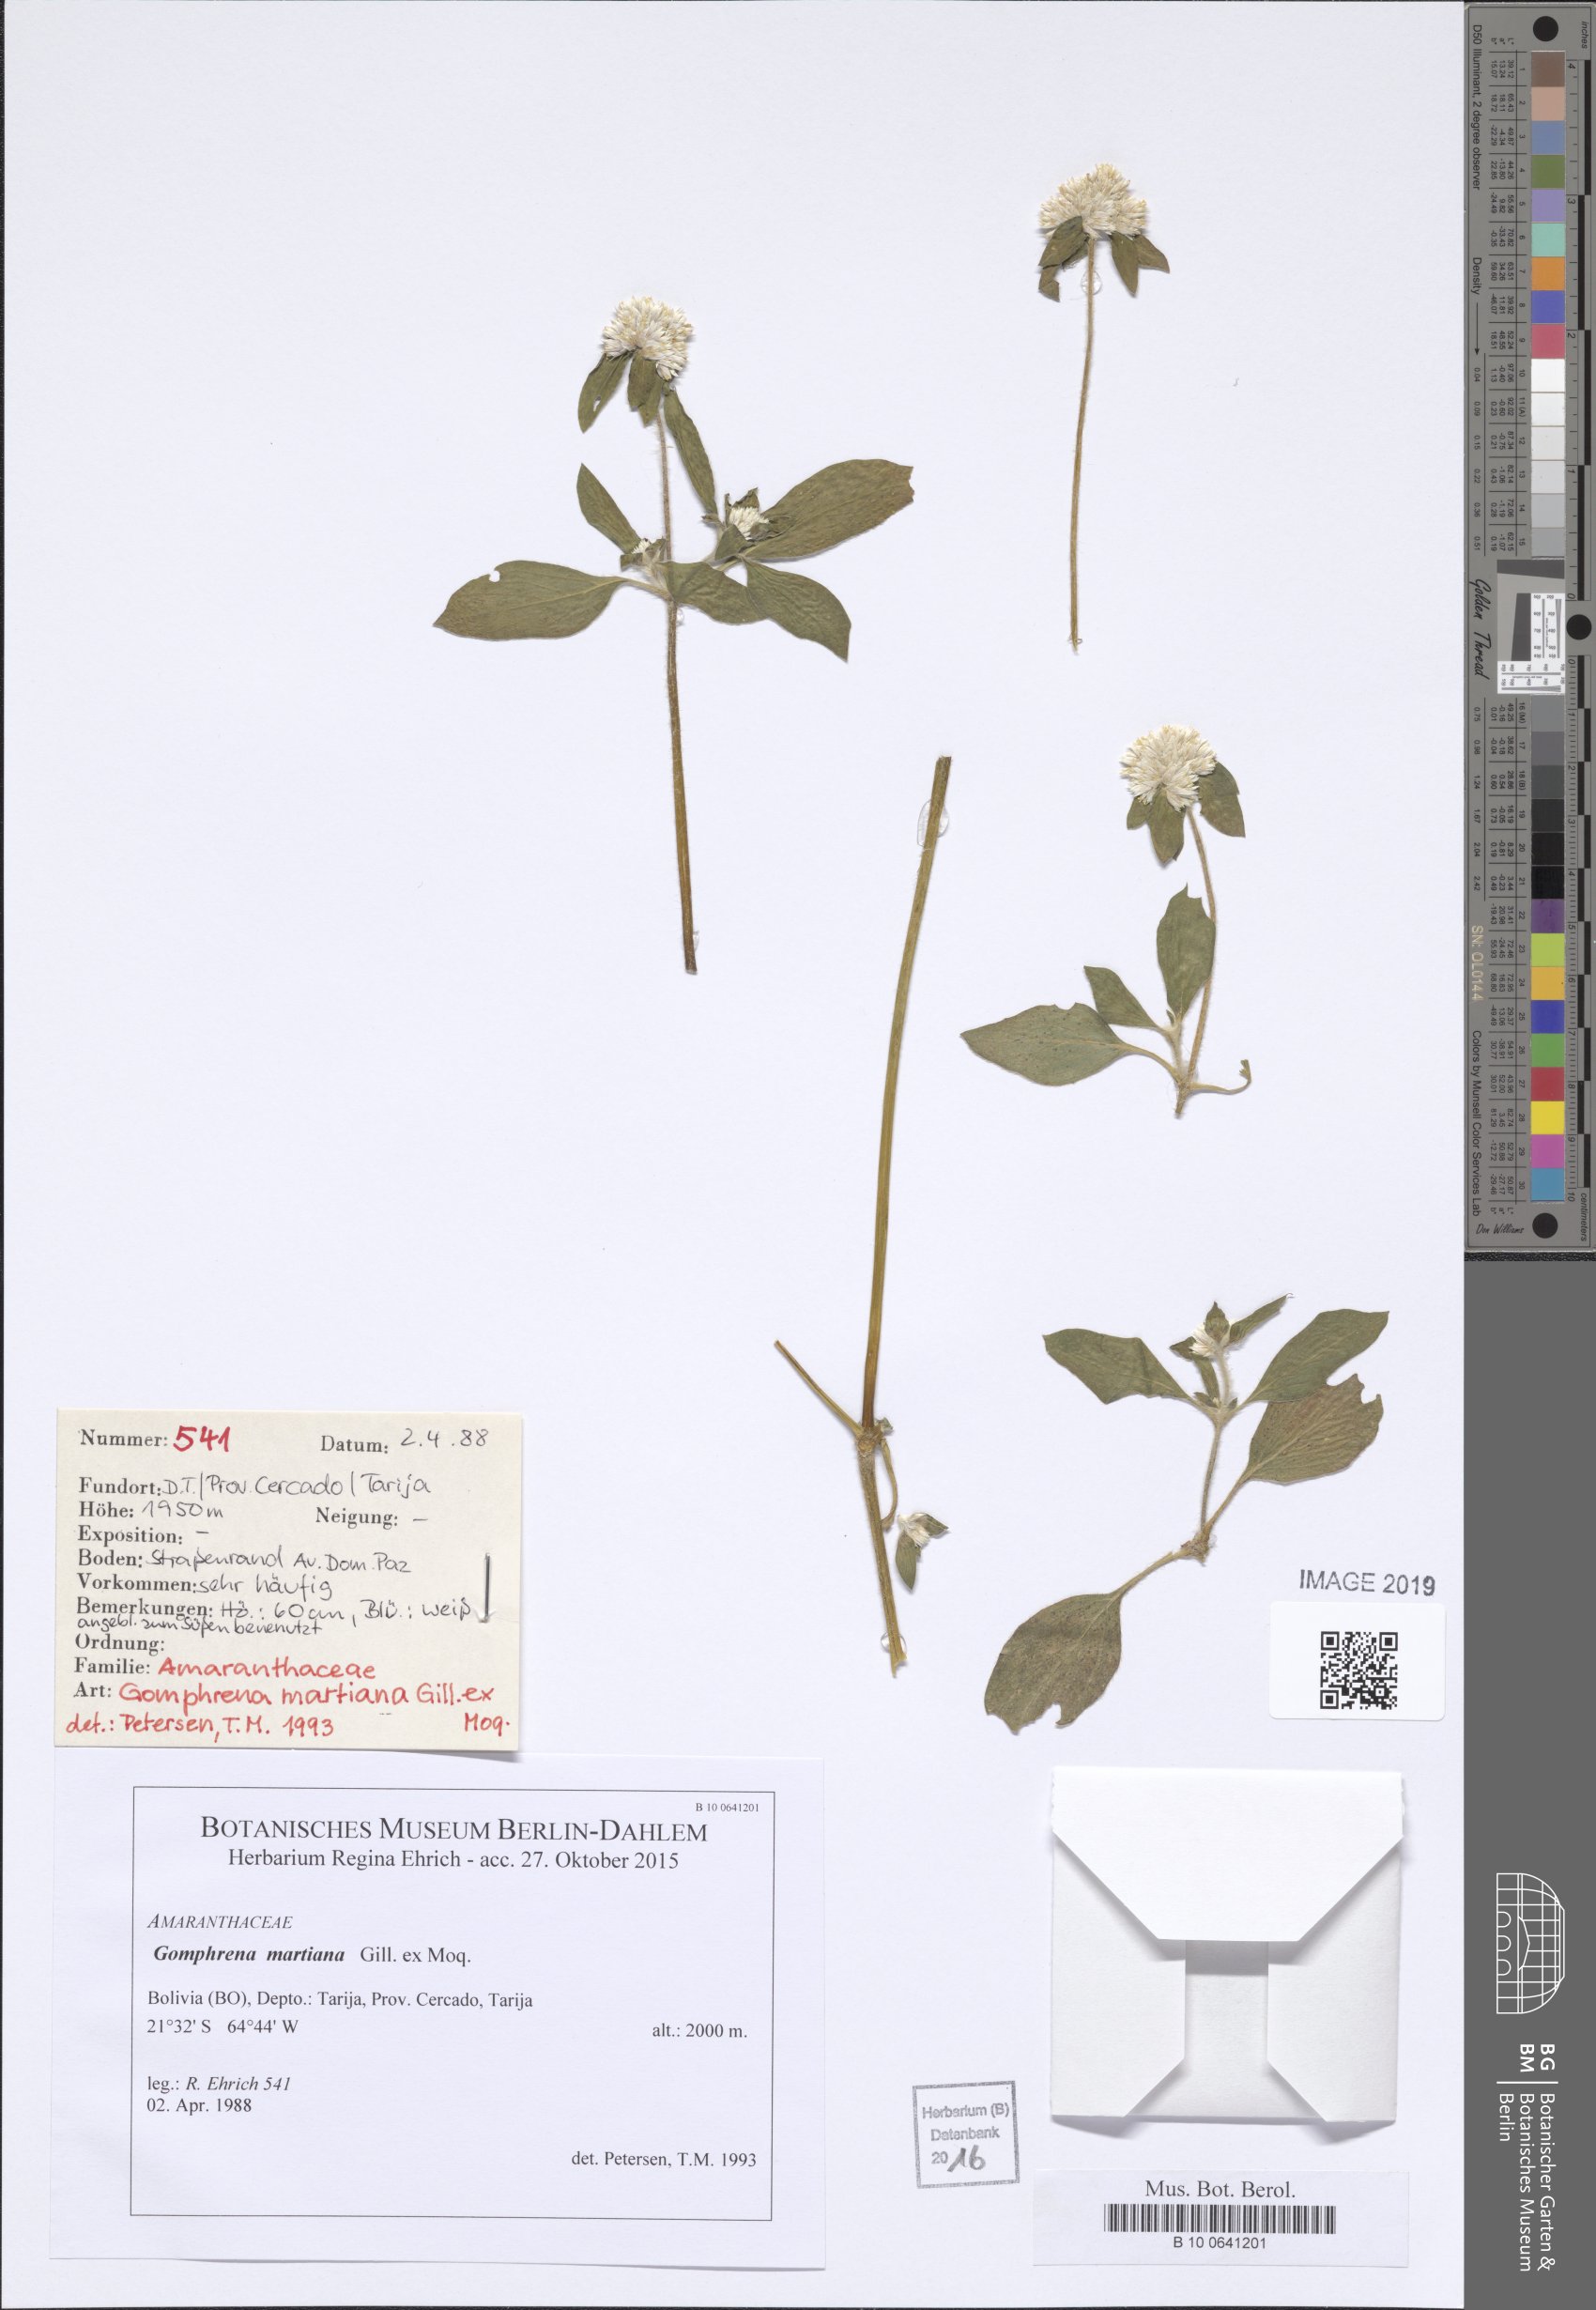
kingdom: Plantae
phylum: Tracheophyta
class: Magnoliopsida
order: Caryophyllales
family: Amaranthaceae
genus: Gomphrena
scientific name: Gomphrena martiana
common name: Globe amaranth
